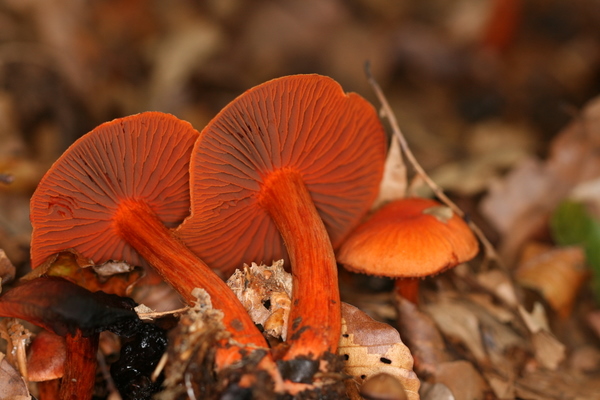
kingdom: Fungi
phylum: Basidiomycota
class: Agaricomycetes
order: Agaricales
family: Cortinariaceae
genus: Cortinarius
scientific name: Cortinarius cinnabarinus
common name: cinnober-slørhat
